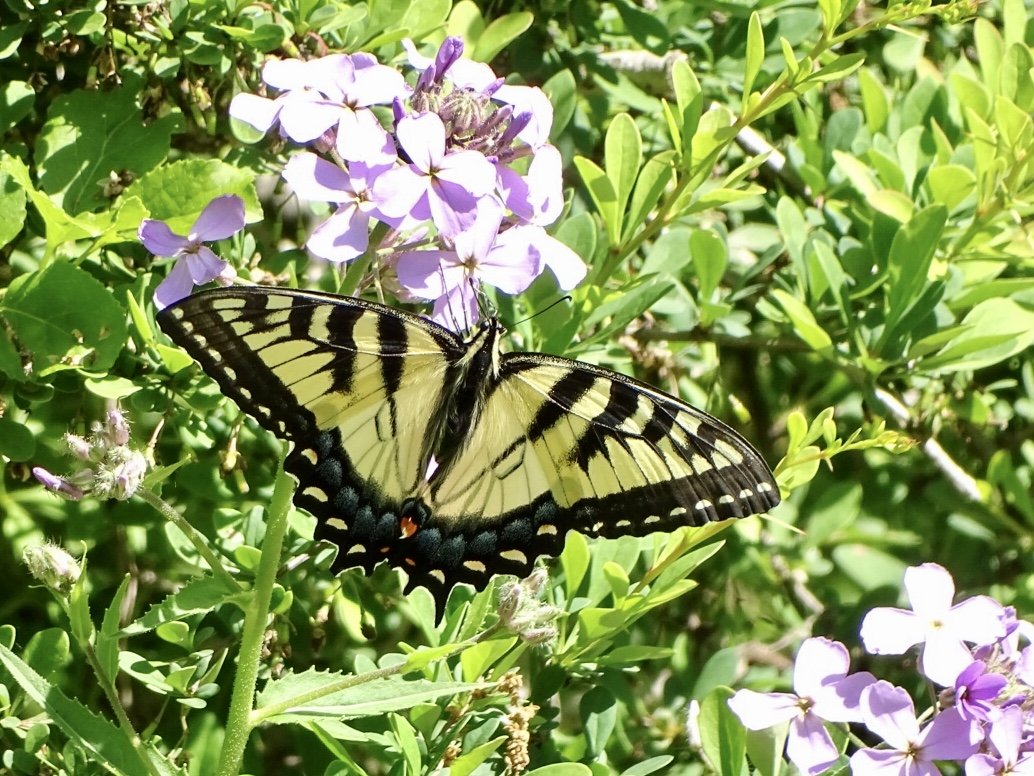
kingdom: Animalia
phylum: Arthropoda
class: Insecta
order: Lepidoptera
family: Papilionidae
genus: Pterourus
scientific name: Pterourus glaucus
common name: Eastern Tiger Swallowtail
